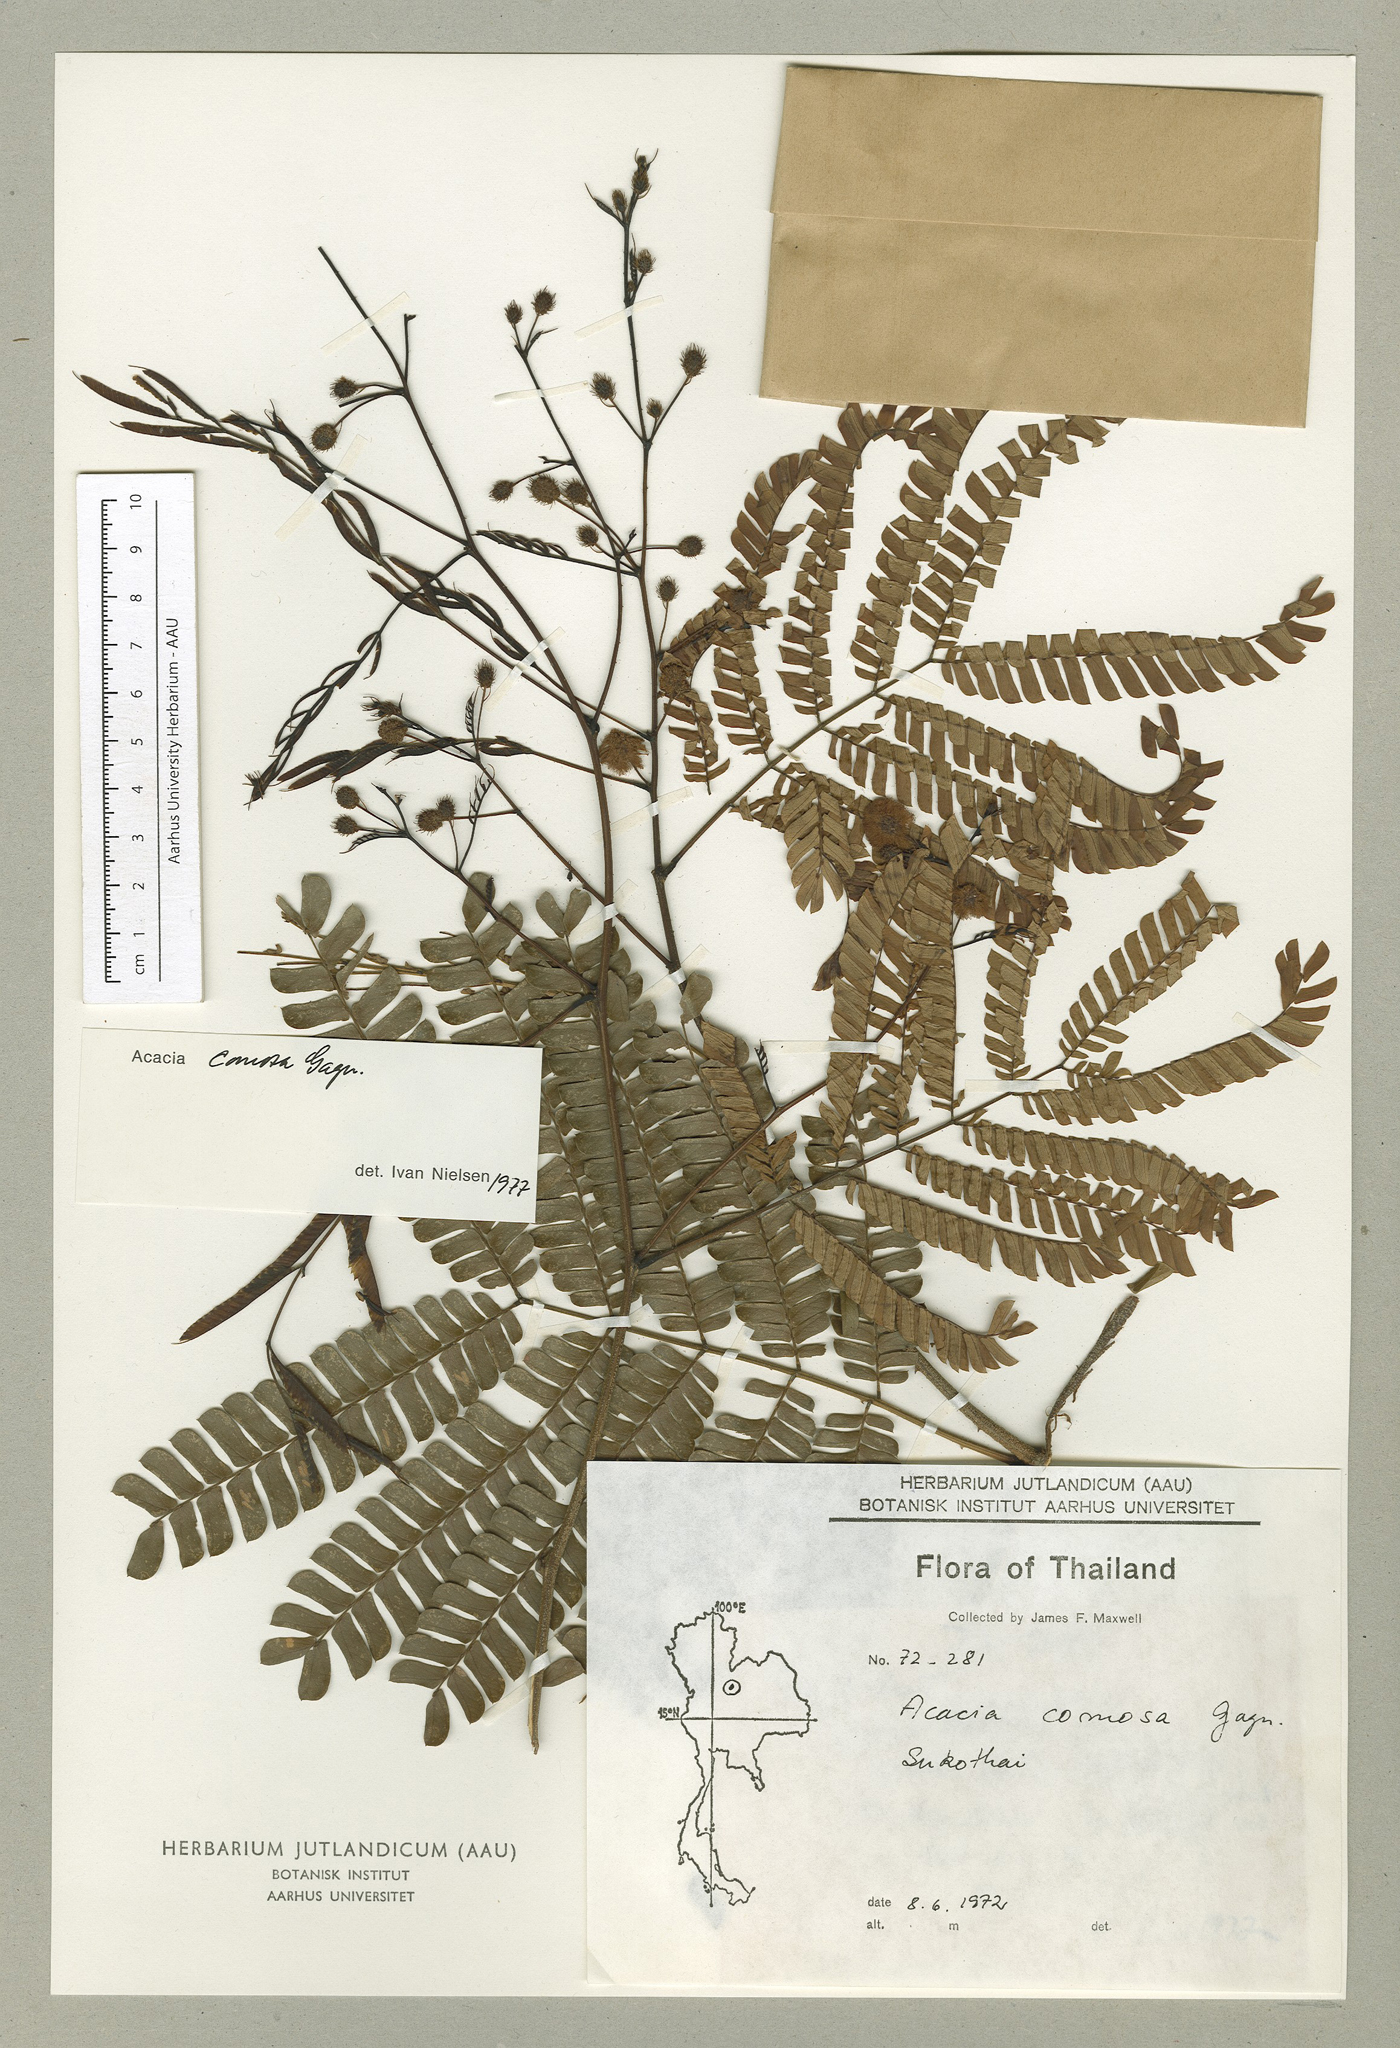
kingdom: Plantae
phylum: Tracheophyta
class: Magnoliopsida
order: Fabales
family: Fabaceae
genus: Senegalia
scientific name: Senegalia comosa
